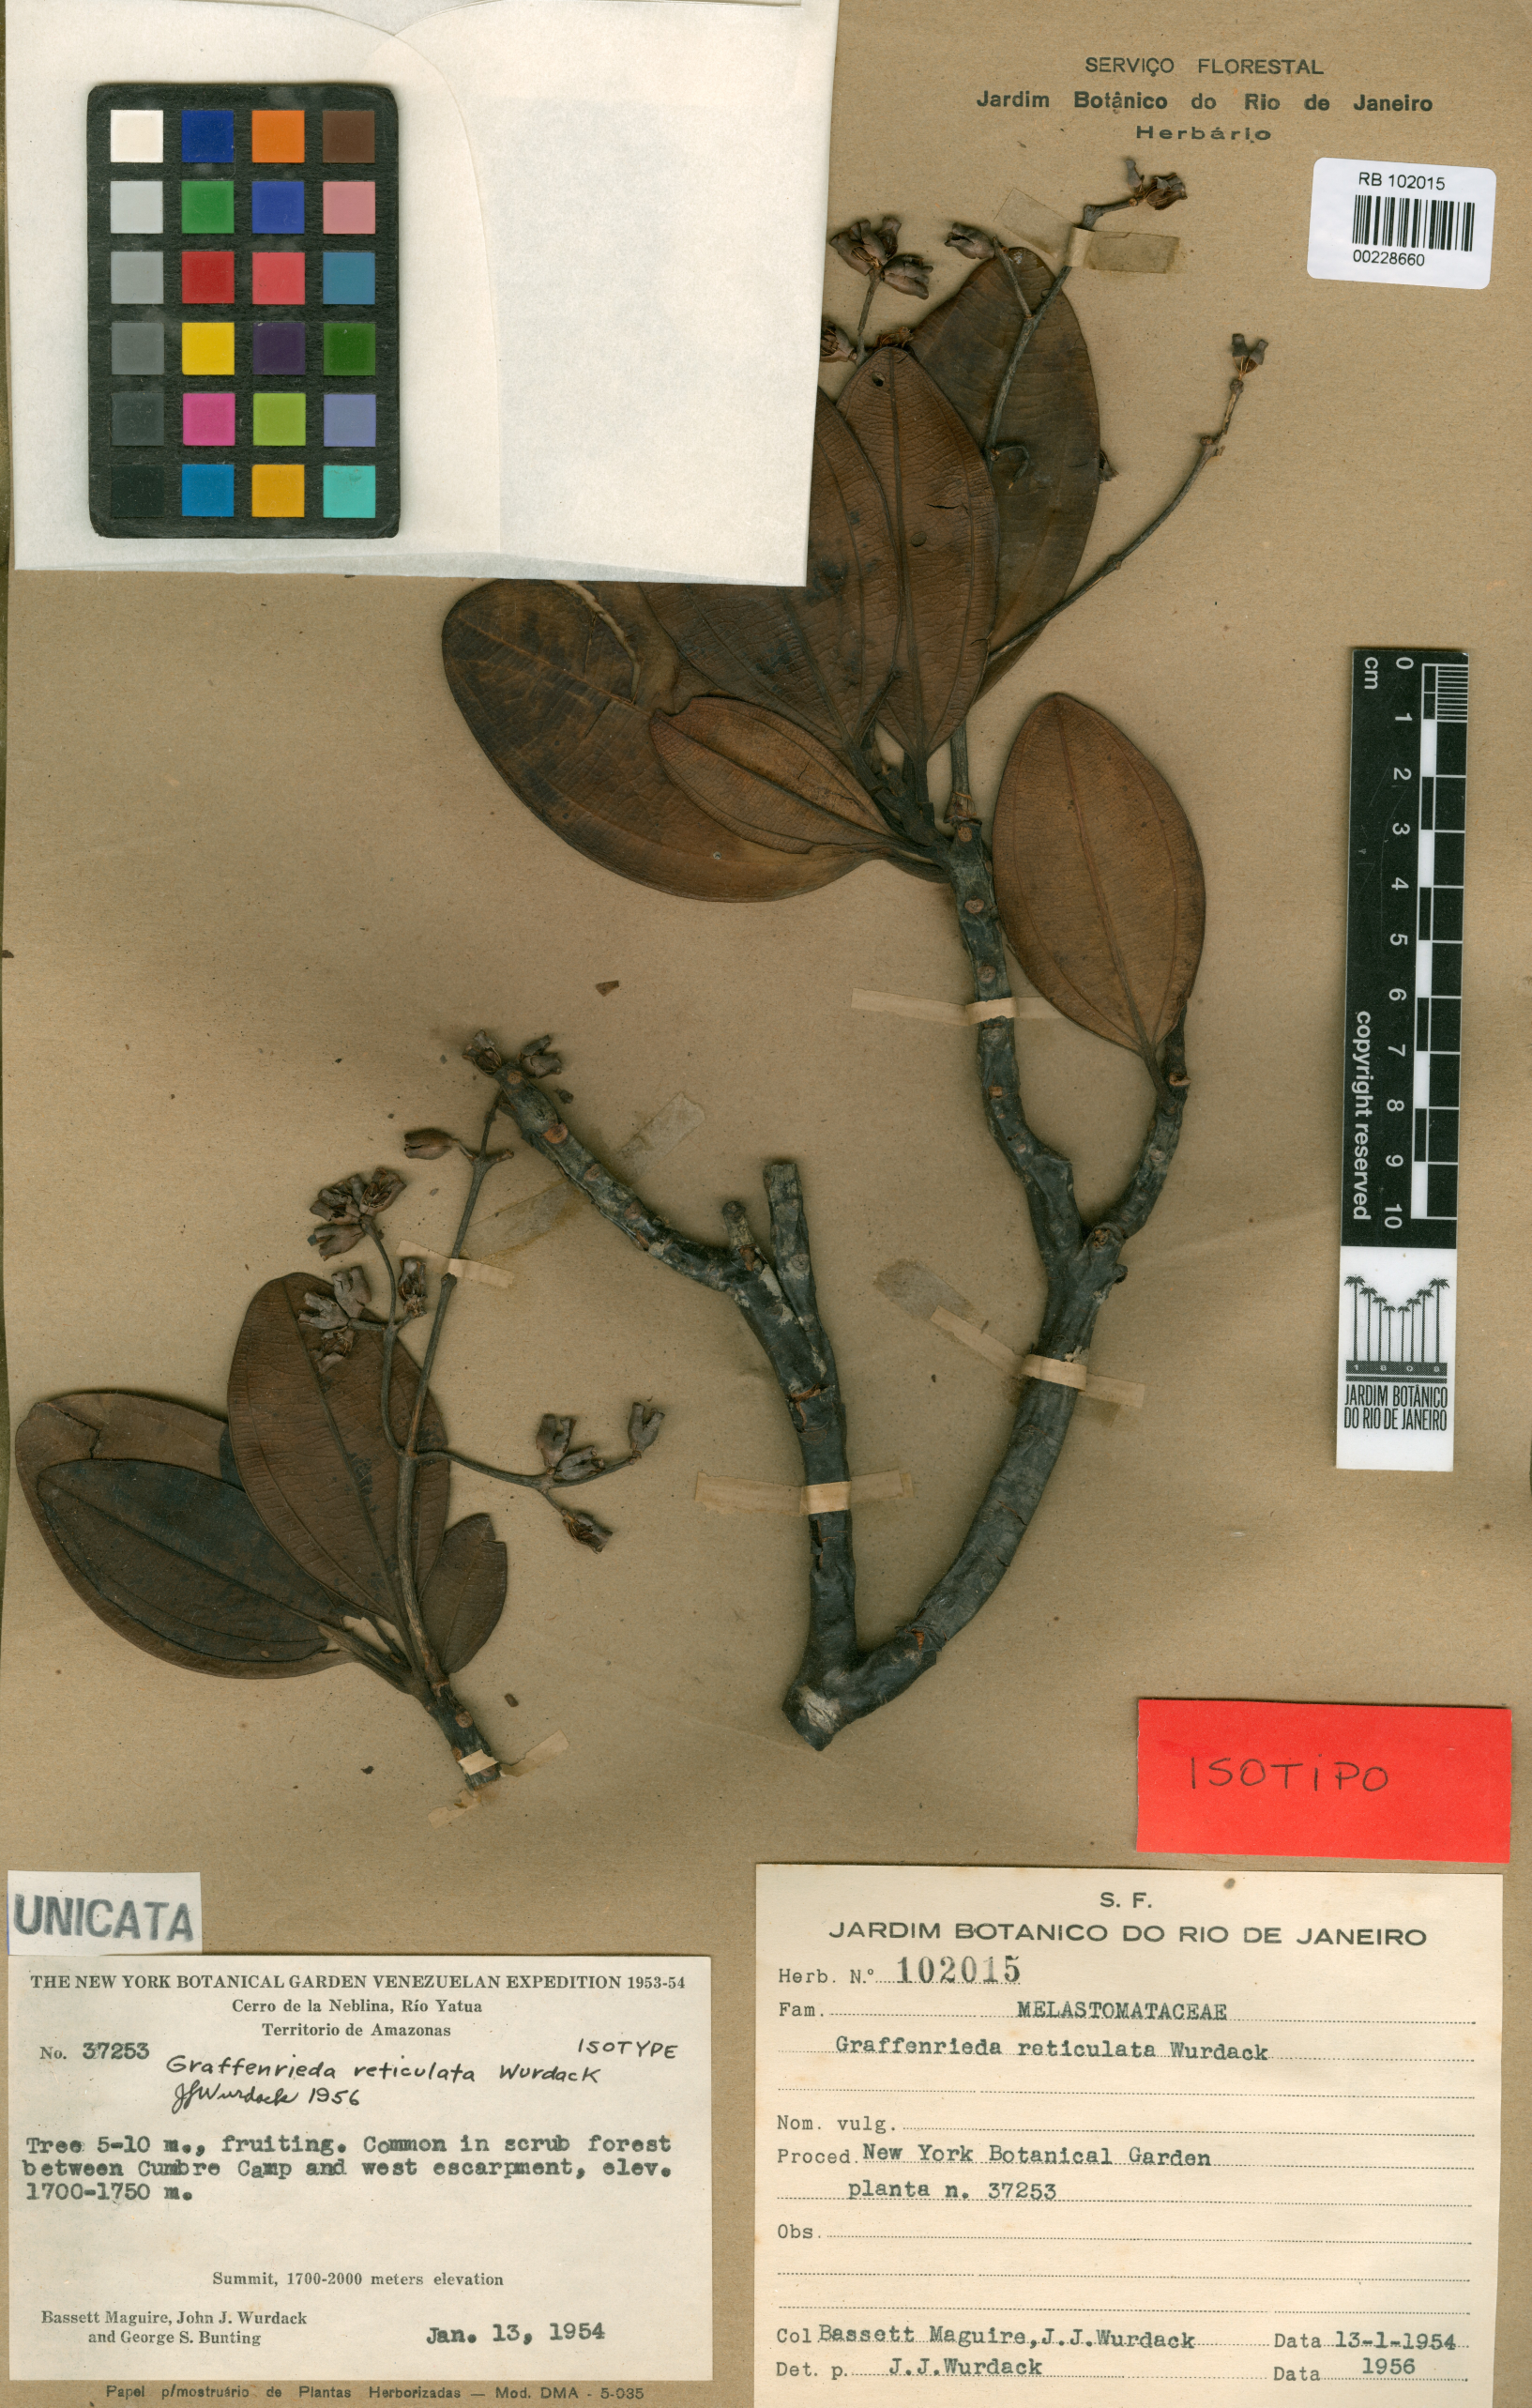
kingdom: Plantae
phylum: Tracheophyta
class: Magnoliopsida
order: Myrtales
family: Melastomataceae
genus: Graffenrieda
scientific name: Graffenrieda reticulata
